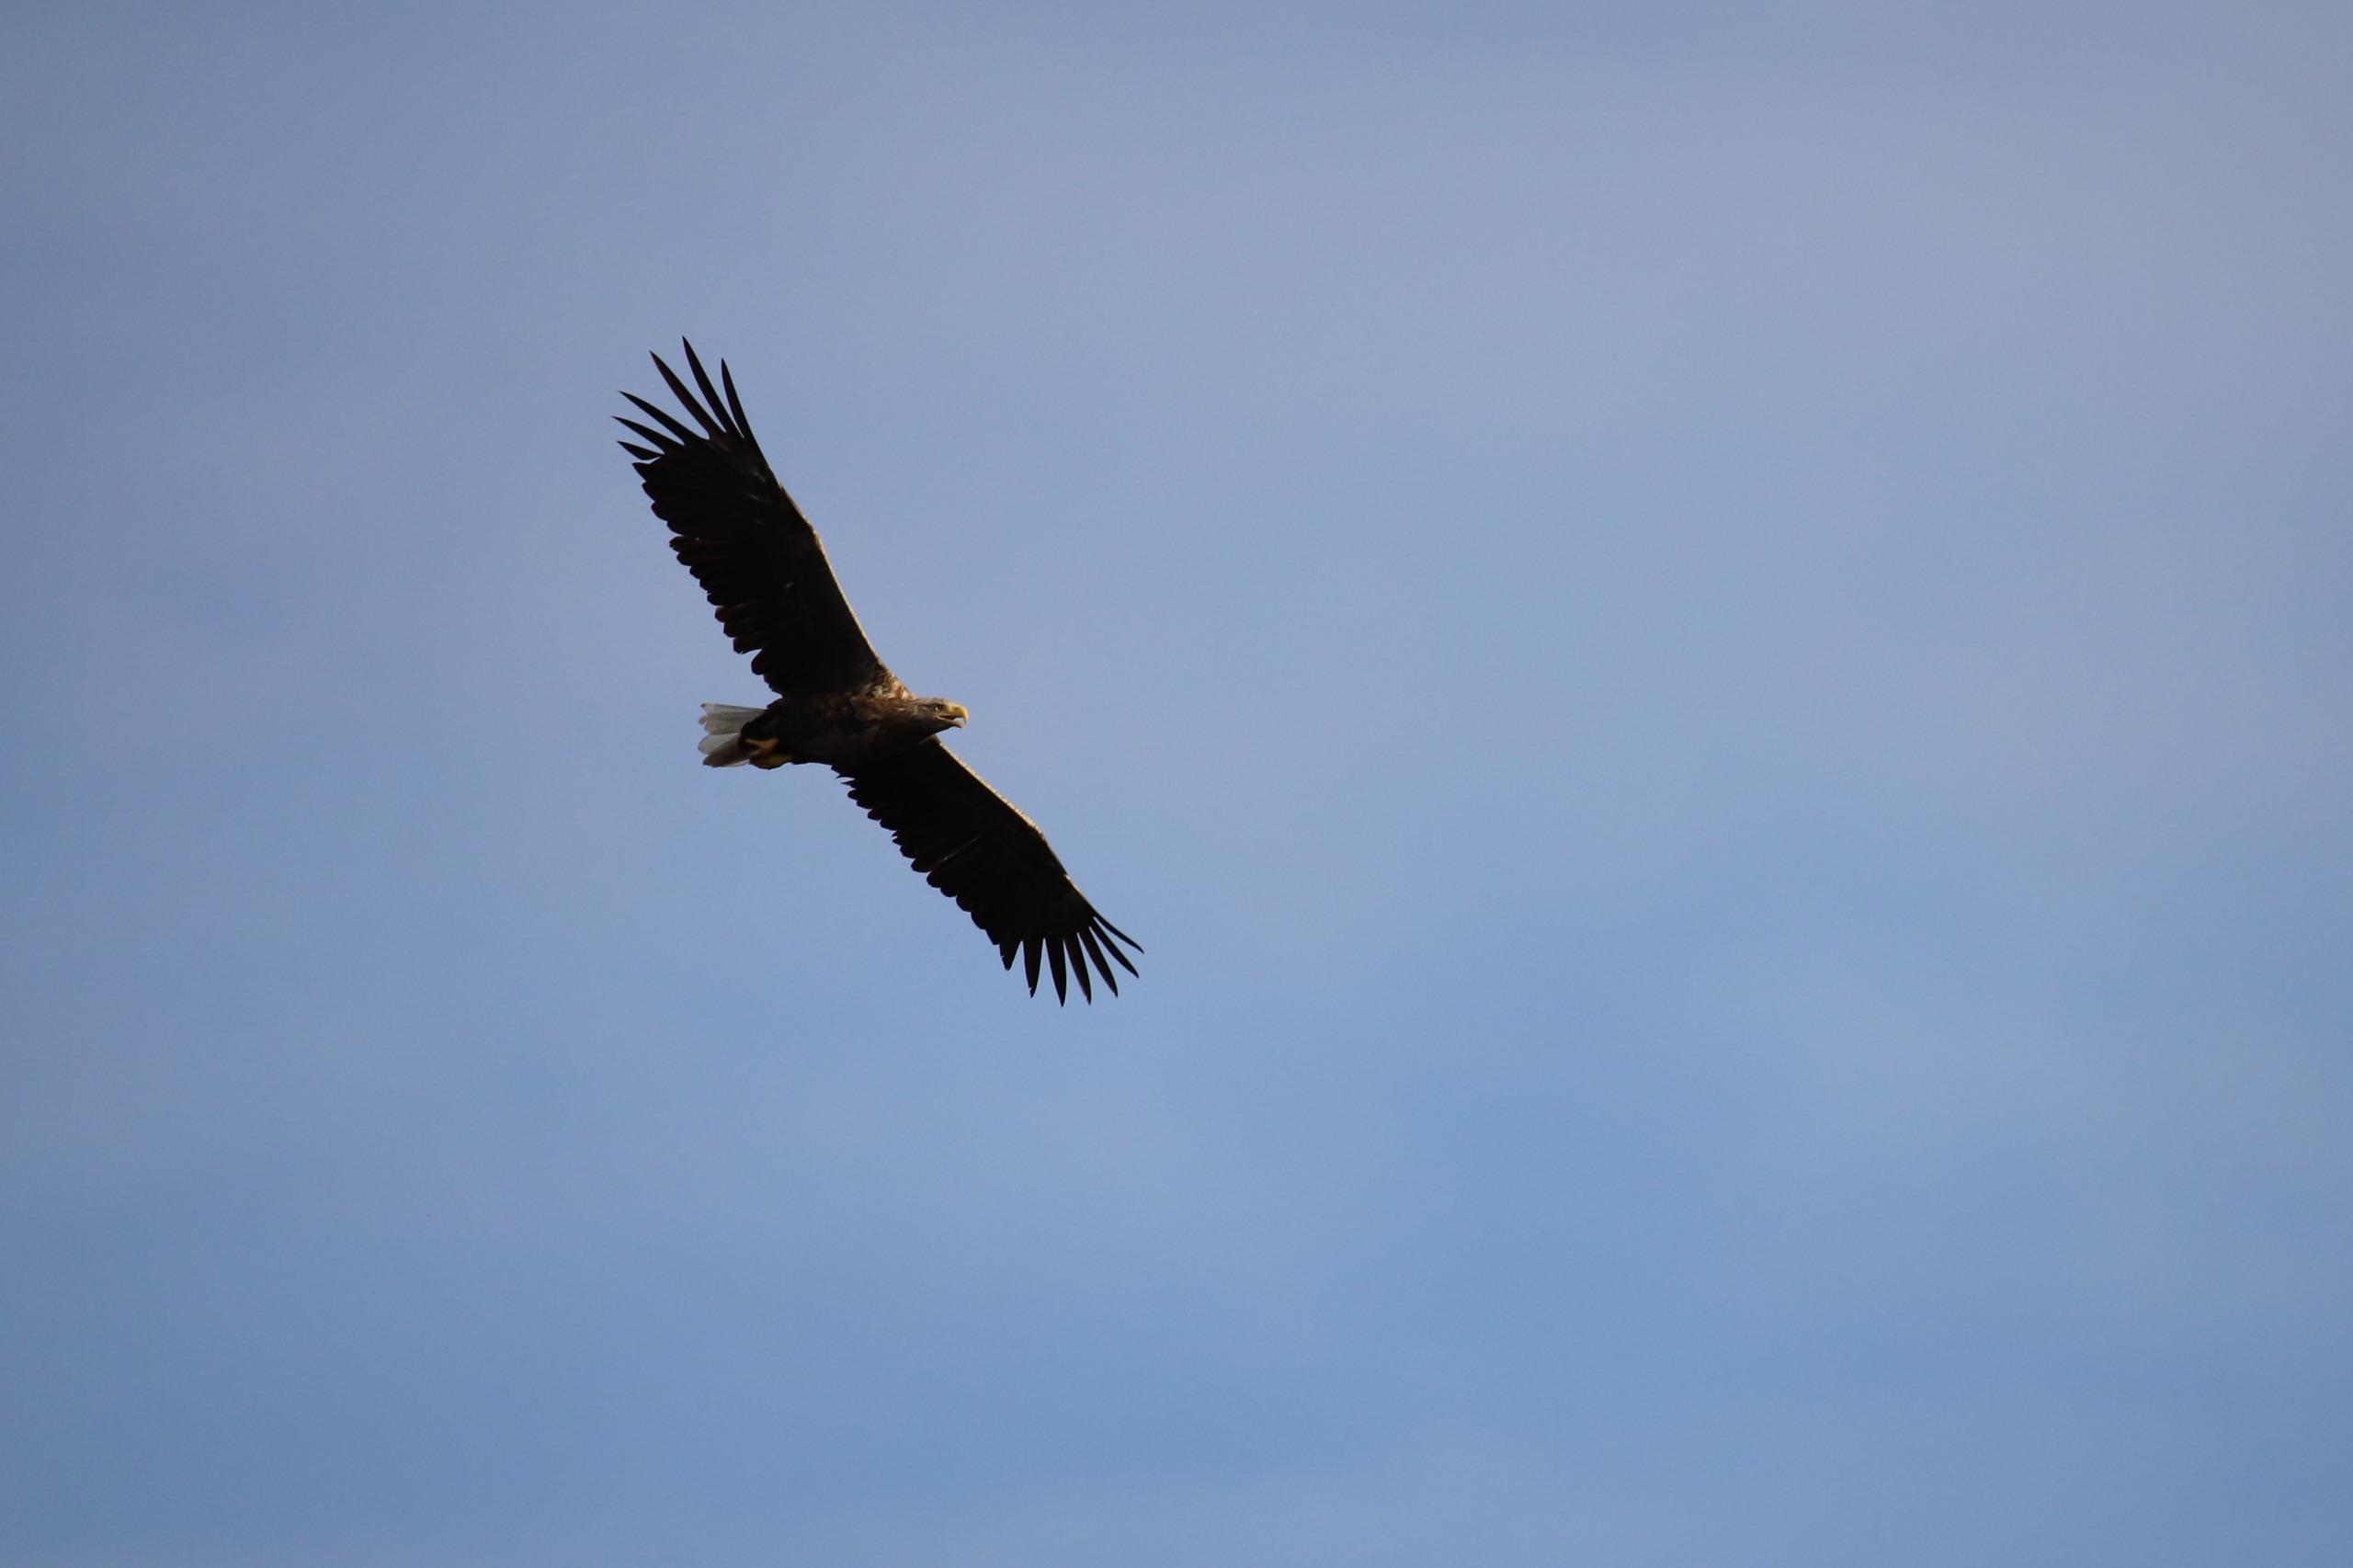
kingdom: Animalia
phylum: Chordata
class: Aves
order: Accipitriformes
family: Accipitridae
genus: Haliaeetus
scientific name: Haliaeetus albicilla
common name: Havørn
